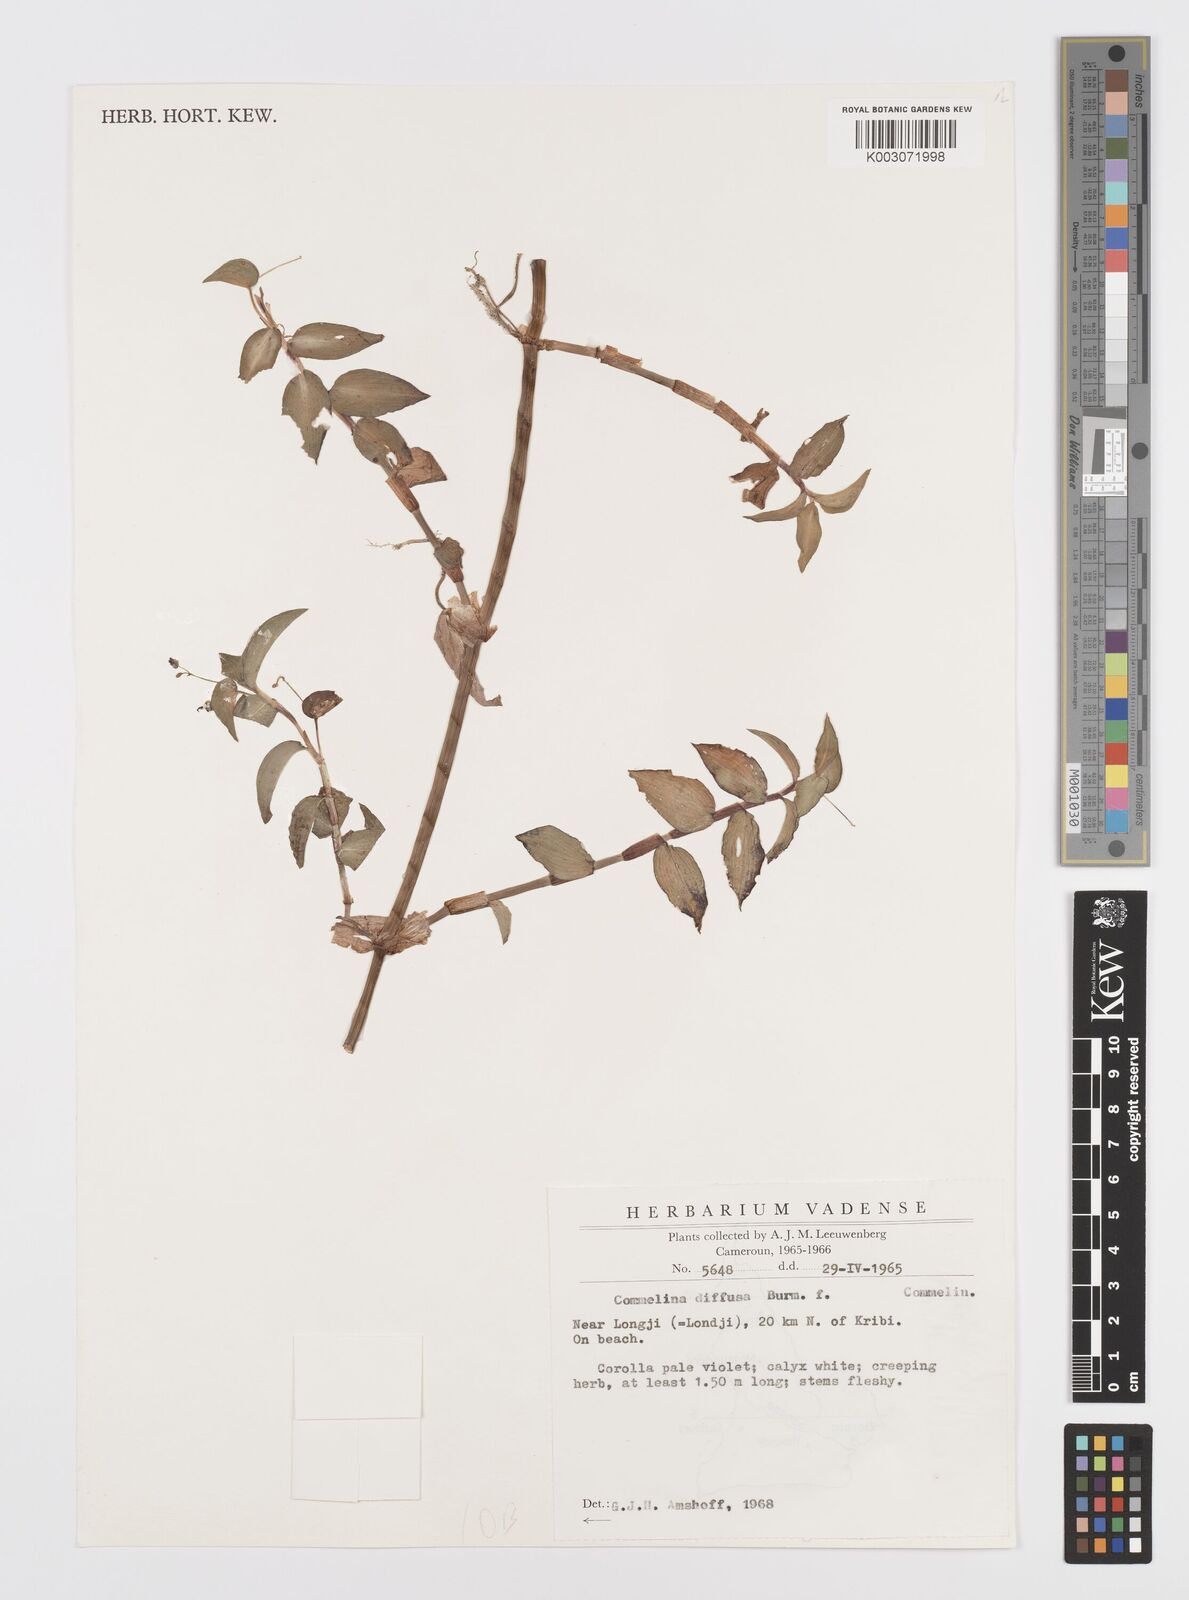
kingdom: Plantae
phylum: Tracheophyta
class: Liliopsida
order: Commelinales
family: Commelinaceae
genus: Commelina
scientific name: Commelina diffusa
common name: Climbing dayflower
